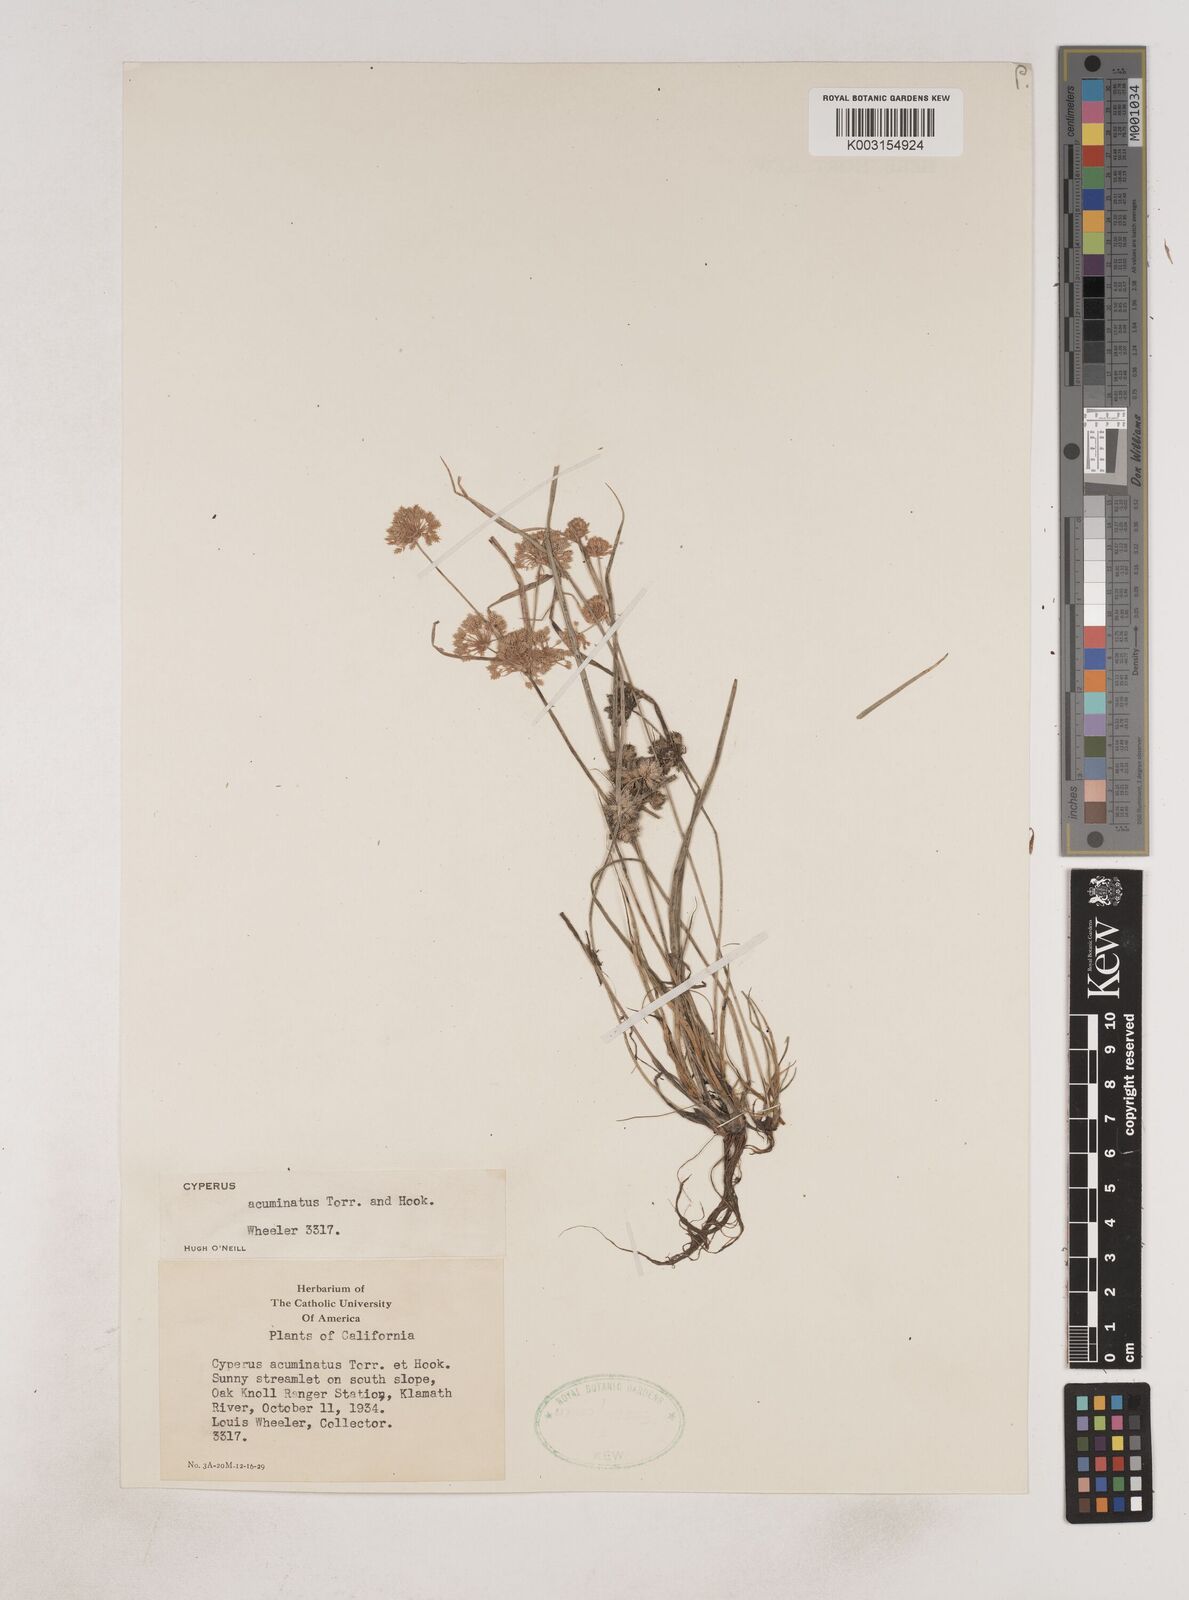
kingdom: Plantae
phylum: Tracheophyta
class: Liliopsida
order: Poales
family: Cyperaceae
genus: Cyperus
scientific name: Cyperus acuminatus
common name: Short-pointed cyperus
